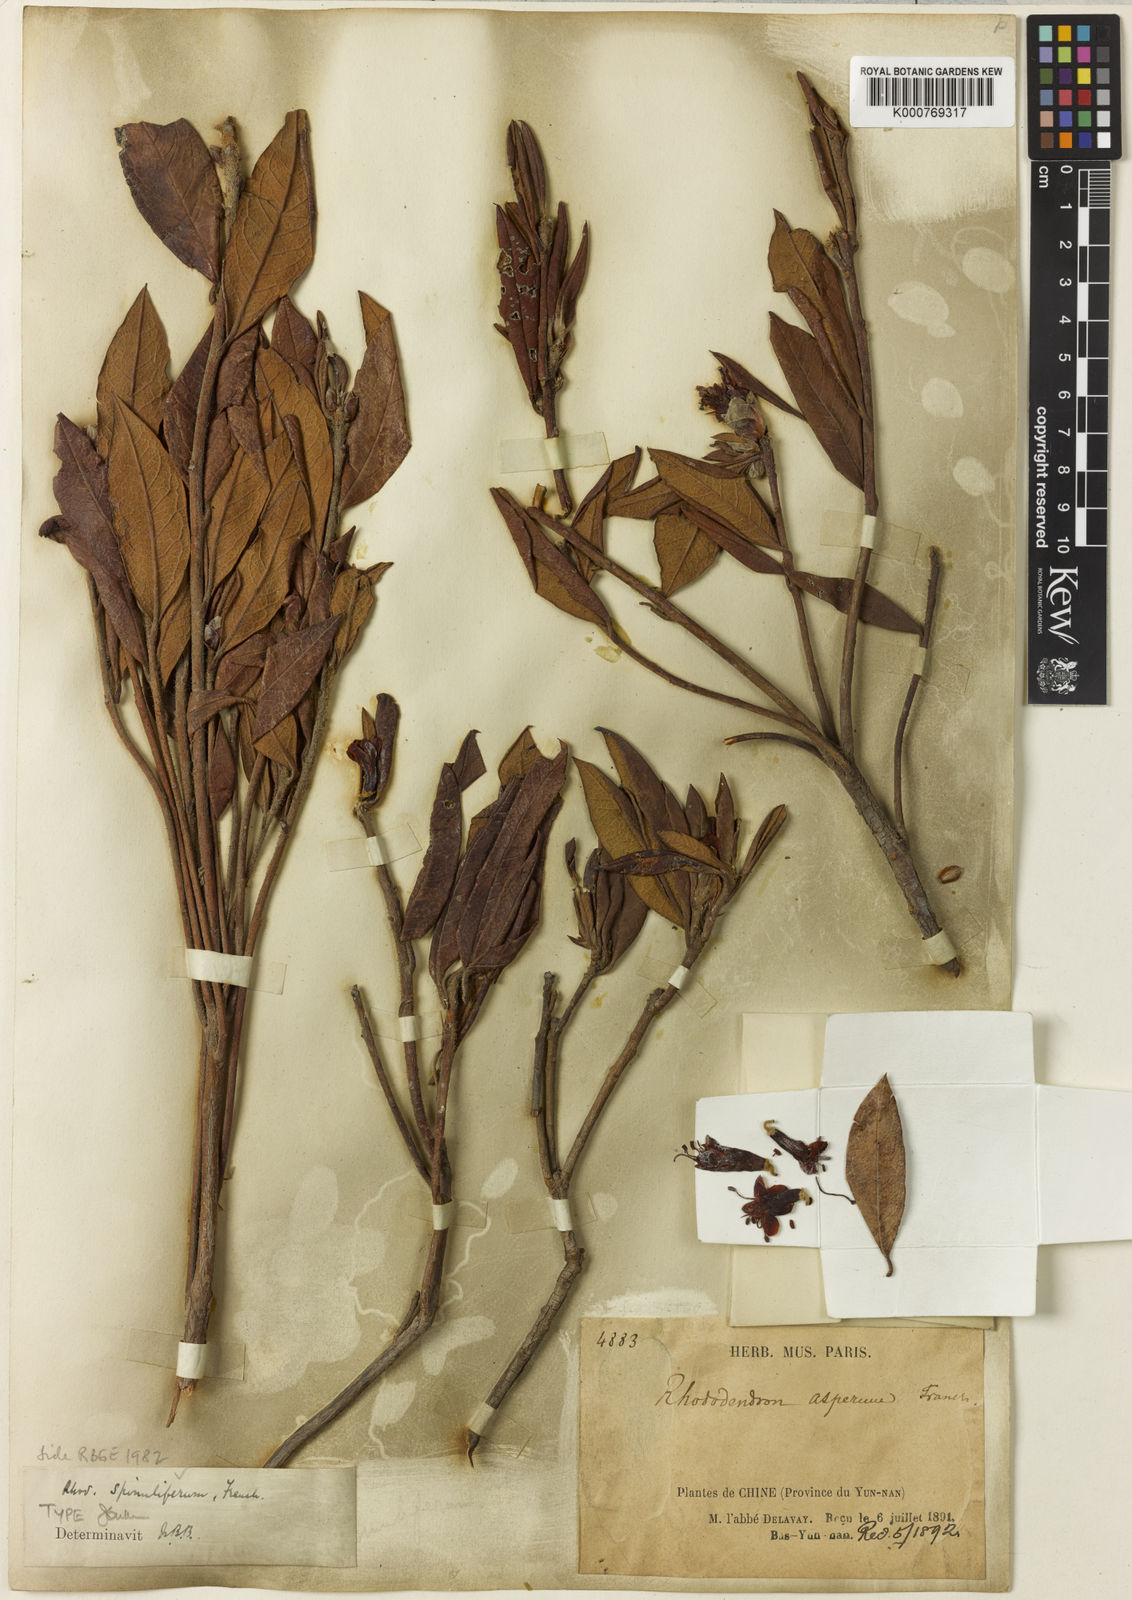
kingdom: Plantae
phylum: Tracheophyta
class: Magnoliopsida
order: Ericales
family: Ericaceae
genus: Rhododendron
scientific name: Rhododendron spinuliferum
